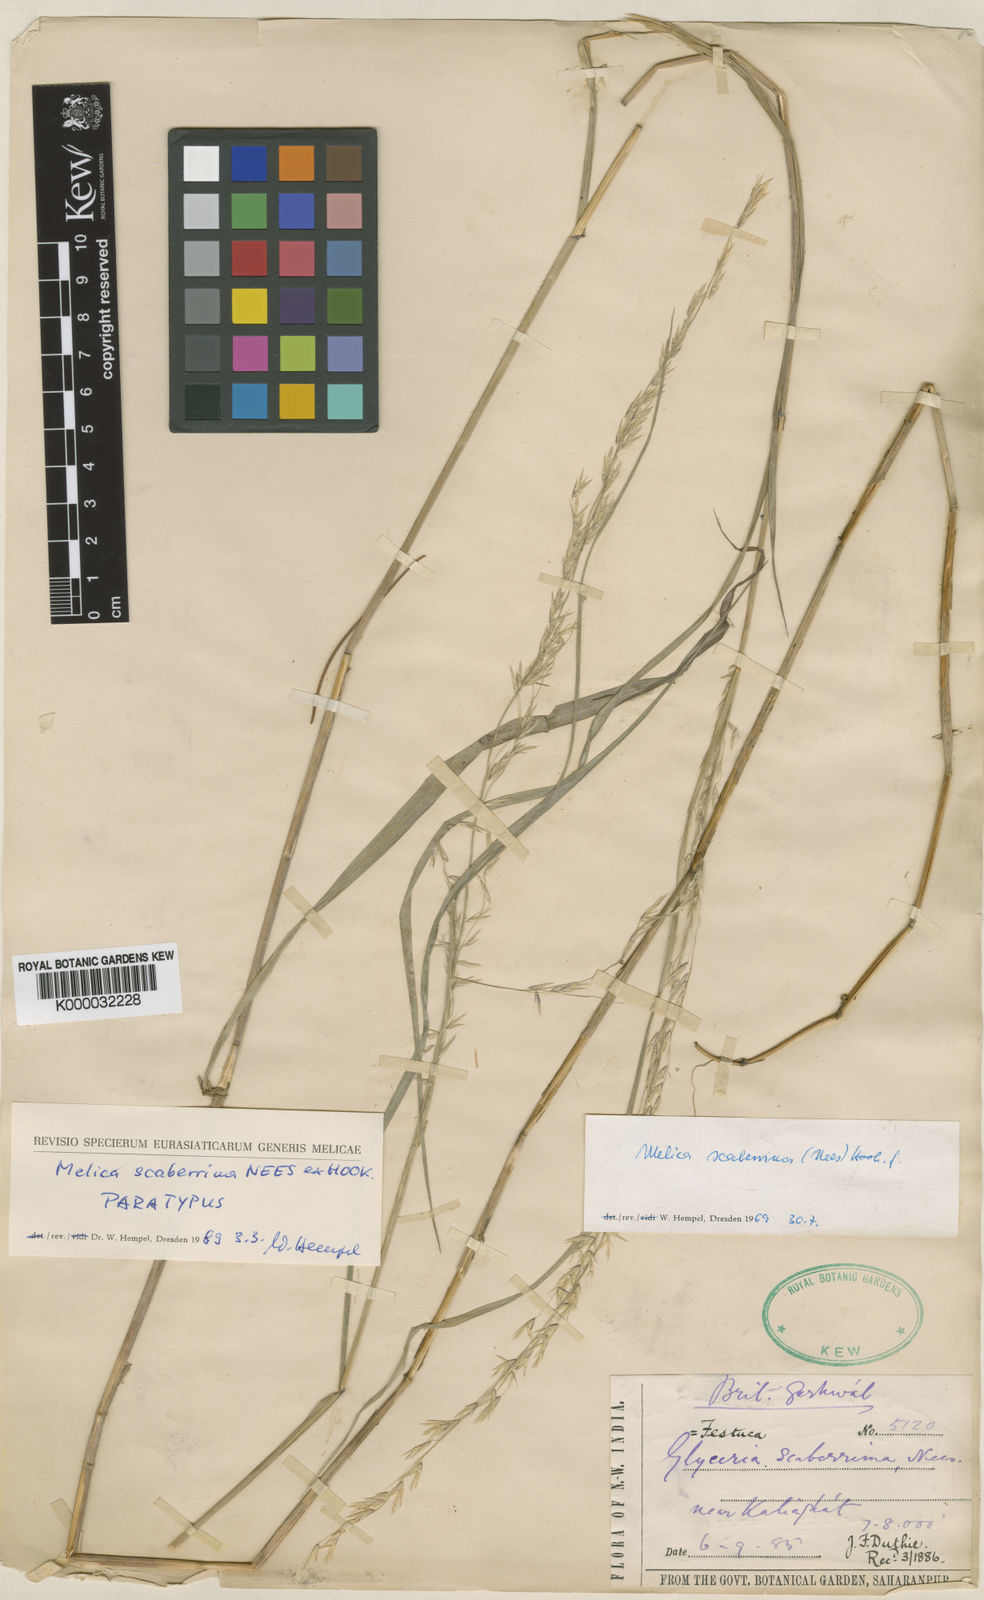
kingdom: Plantae
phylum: Tracheophyta
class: Liliopsida
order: Poales
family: Poaceae
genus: Melica
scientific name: Melica scaberrima
